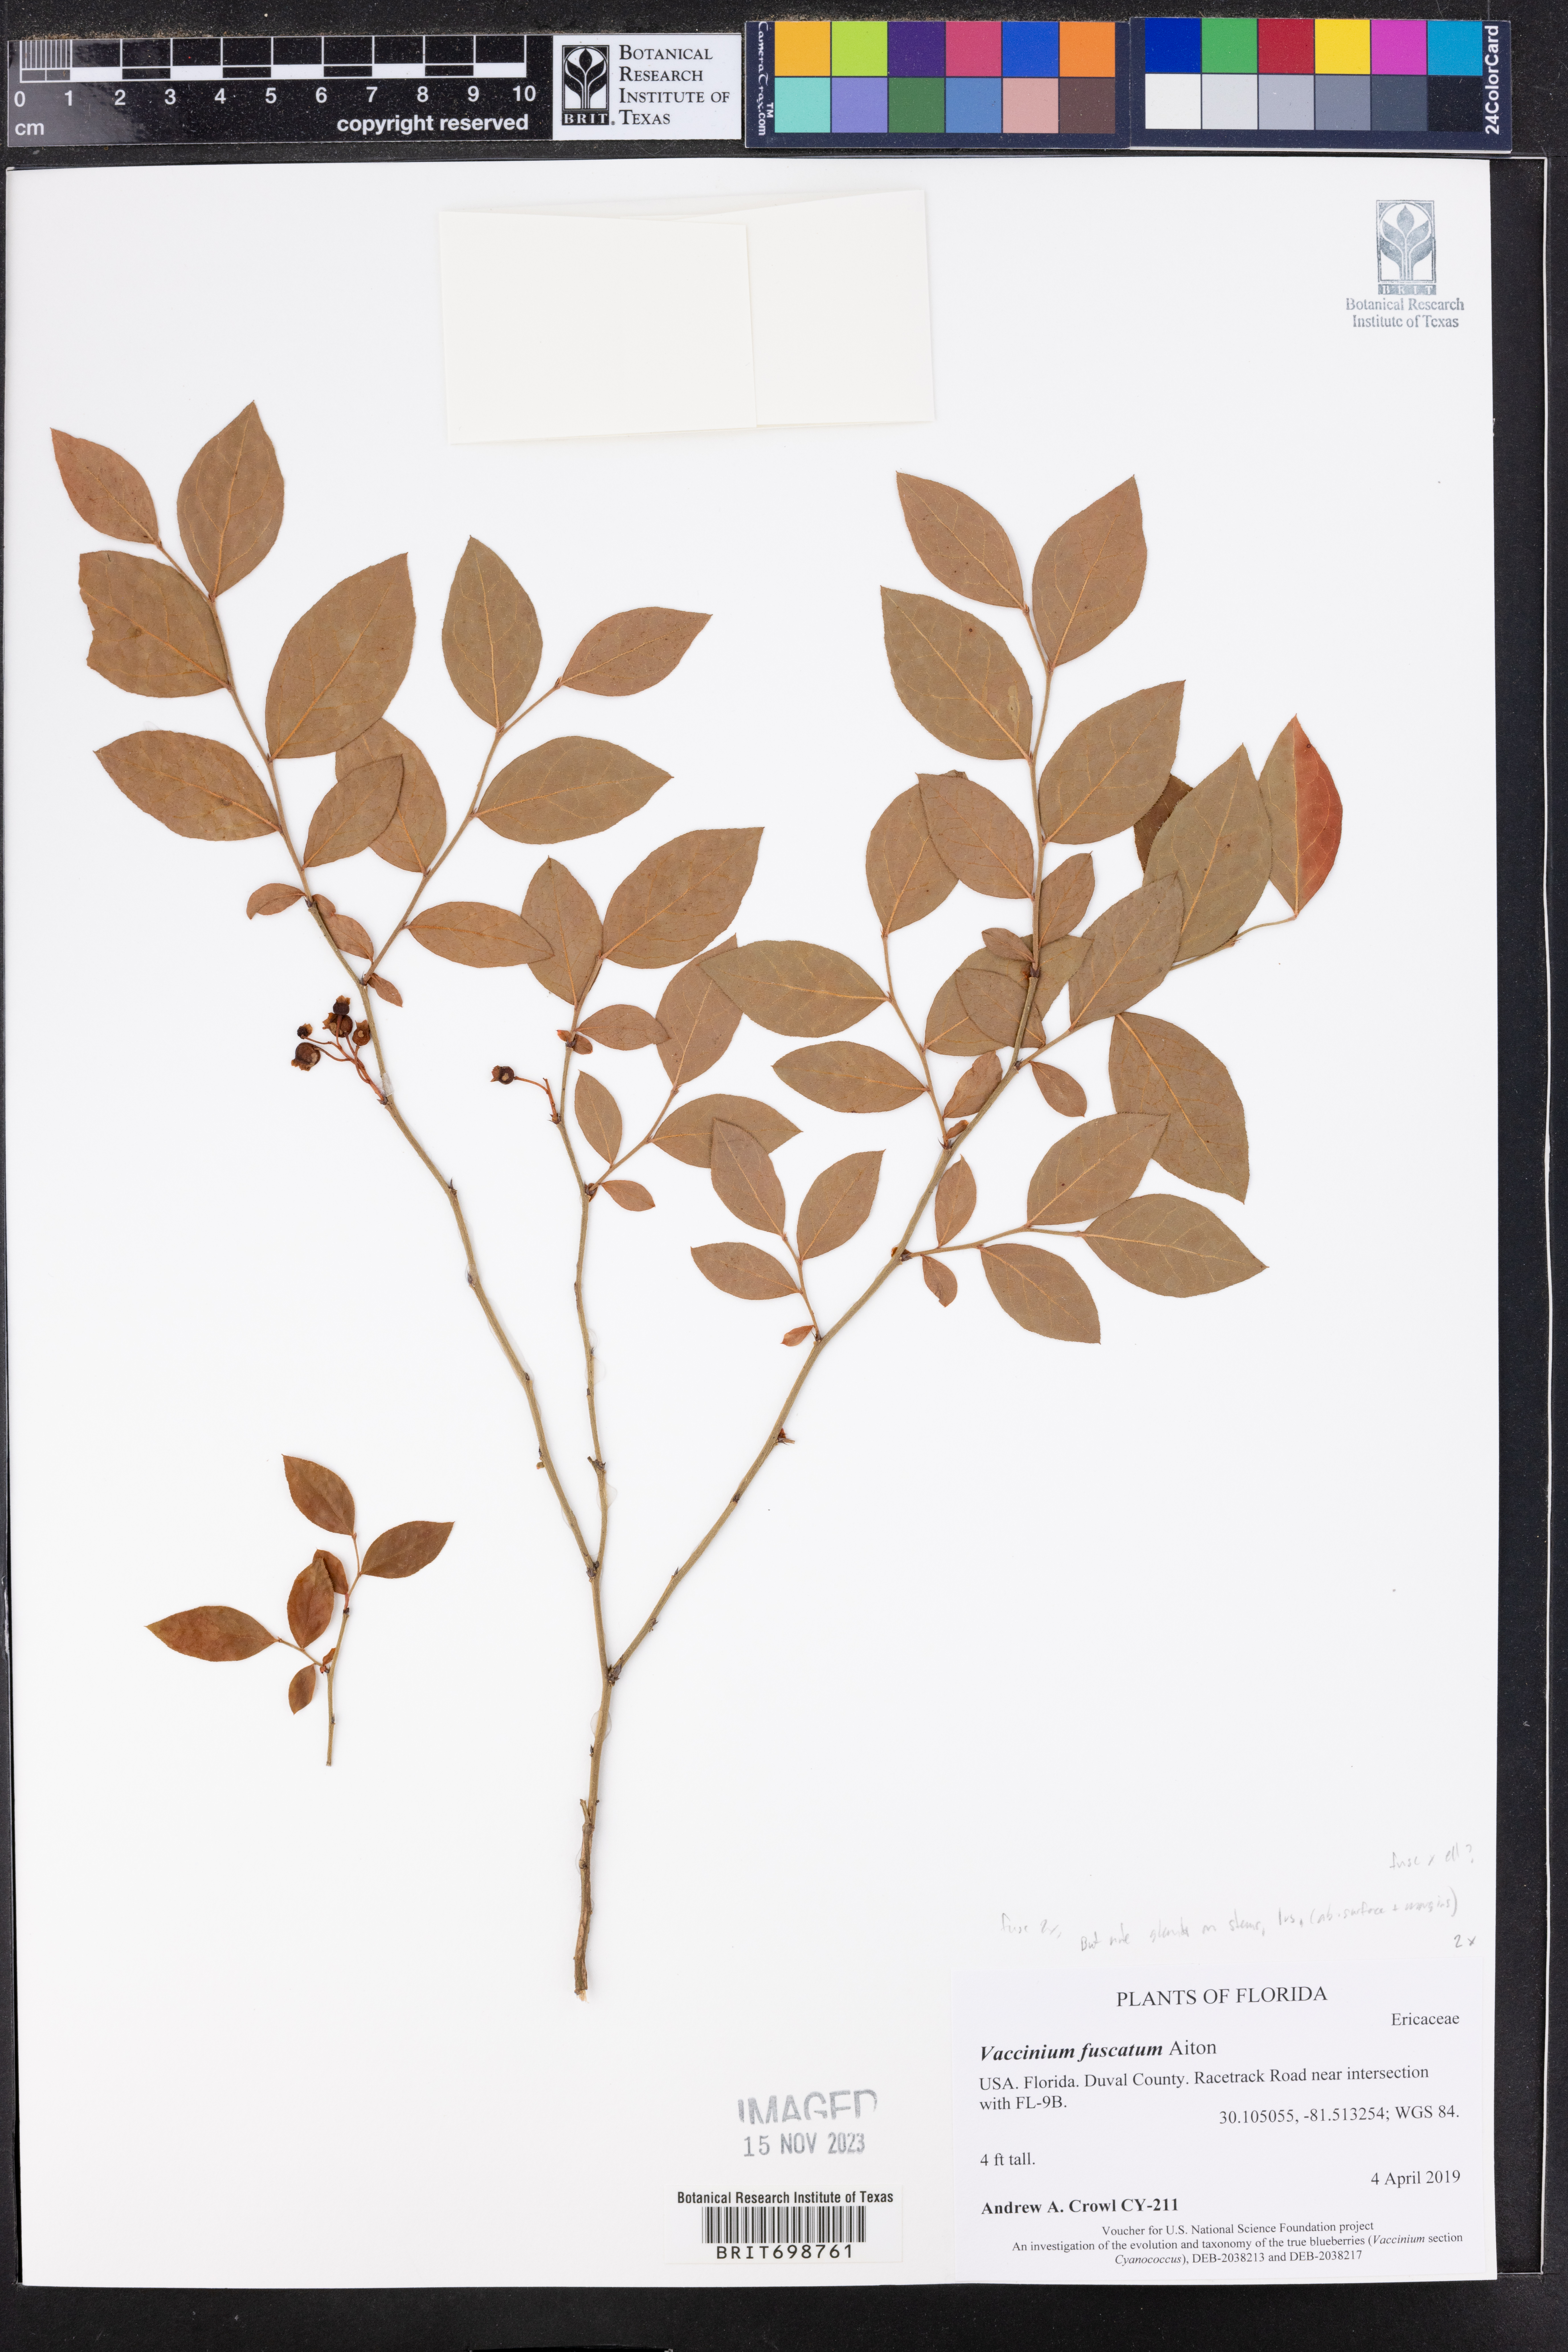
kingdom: Plantae
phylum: Tracheophyta
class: Magnoliopsida
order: Ericales
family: Ericaceae
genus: Vaccinium
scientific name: Vaccinium corymbosum
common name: Blueberry
